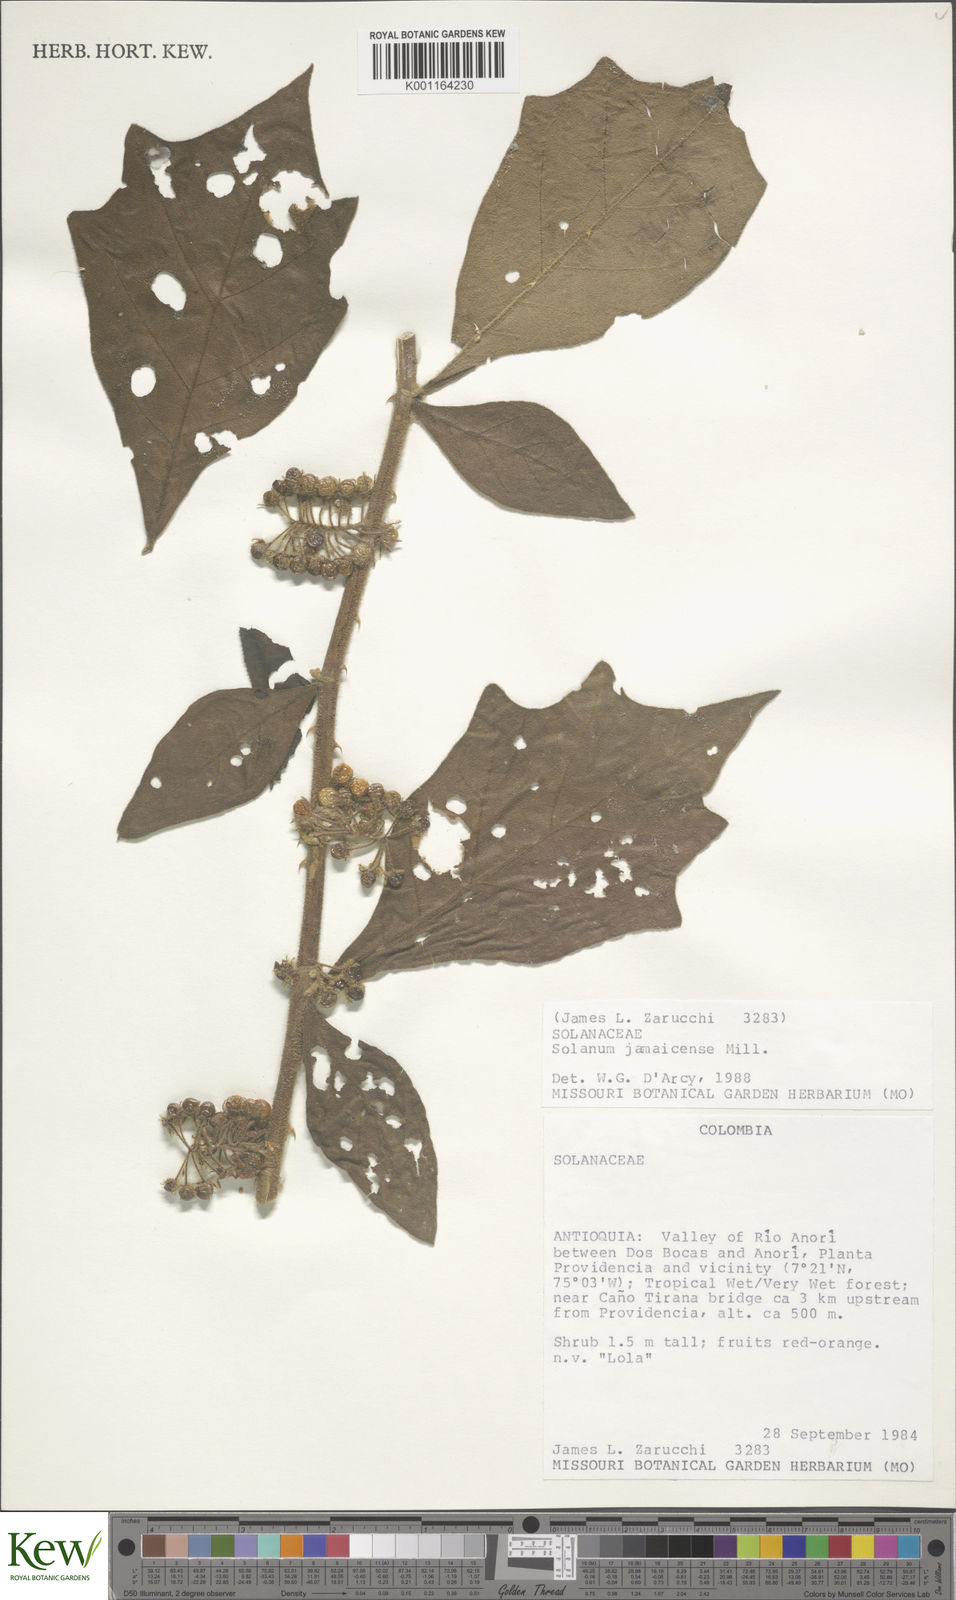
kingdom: Plantae
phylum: Tracheophyta
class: Magnoliopsida
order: Solanales
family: Solanaceae
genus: Solanum
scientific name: Solanum jamaicense
